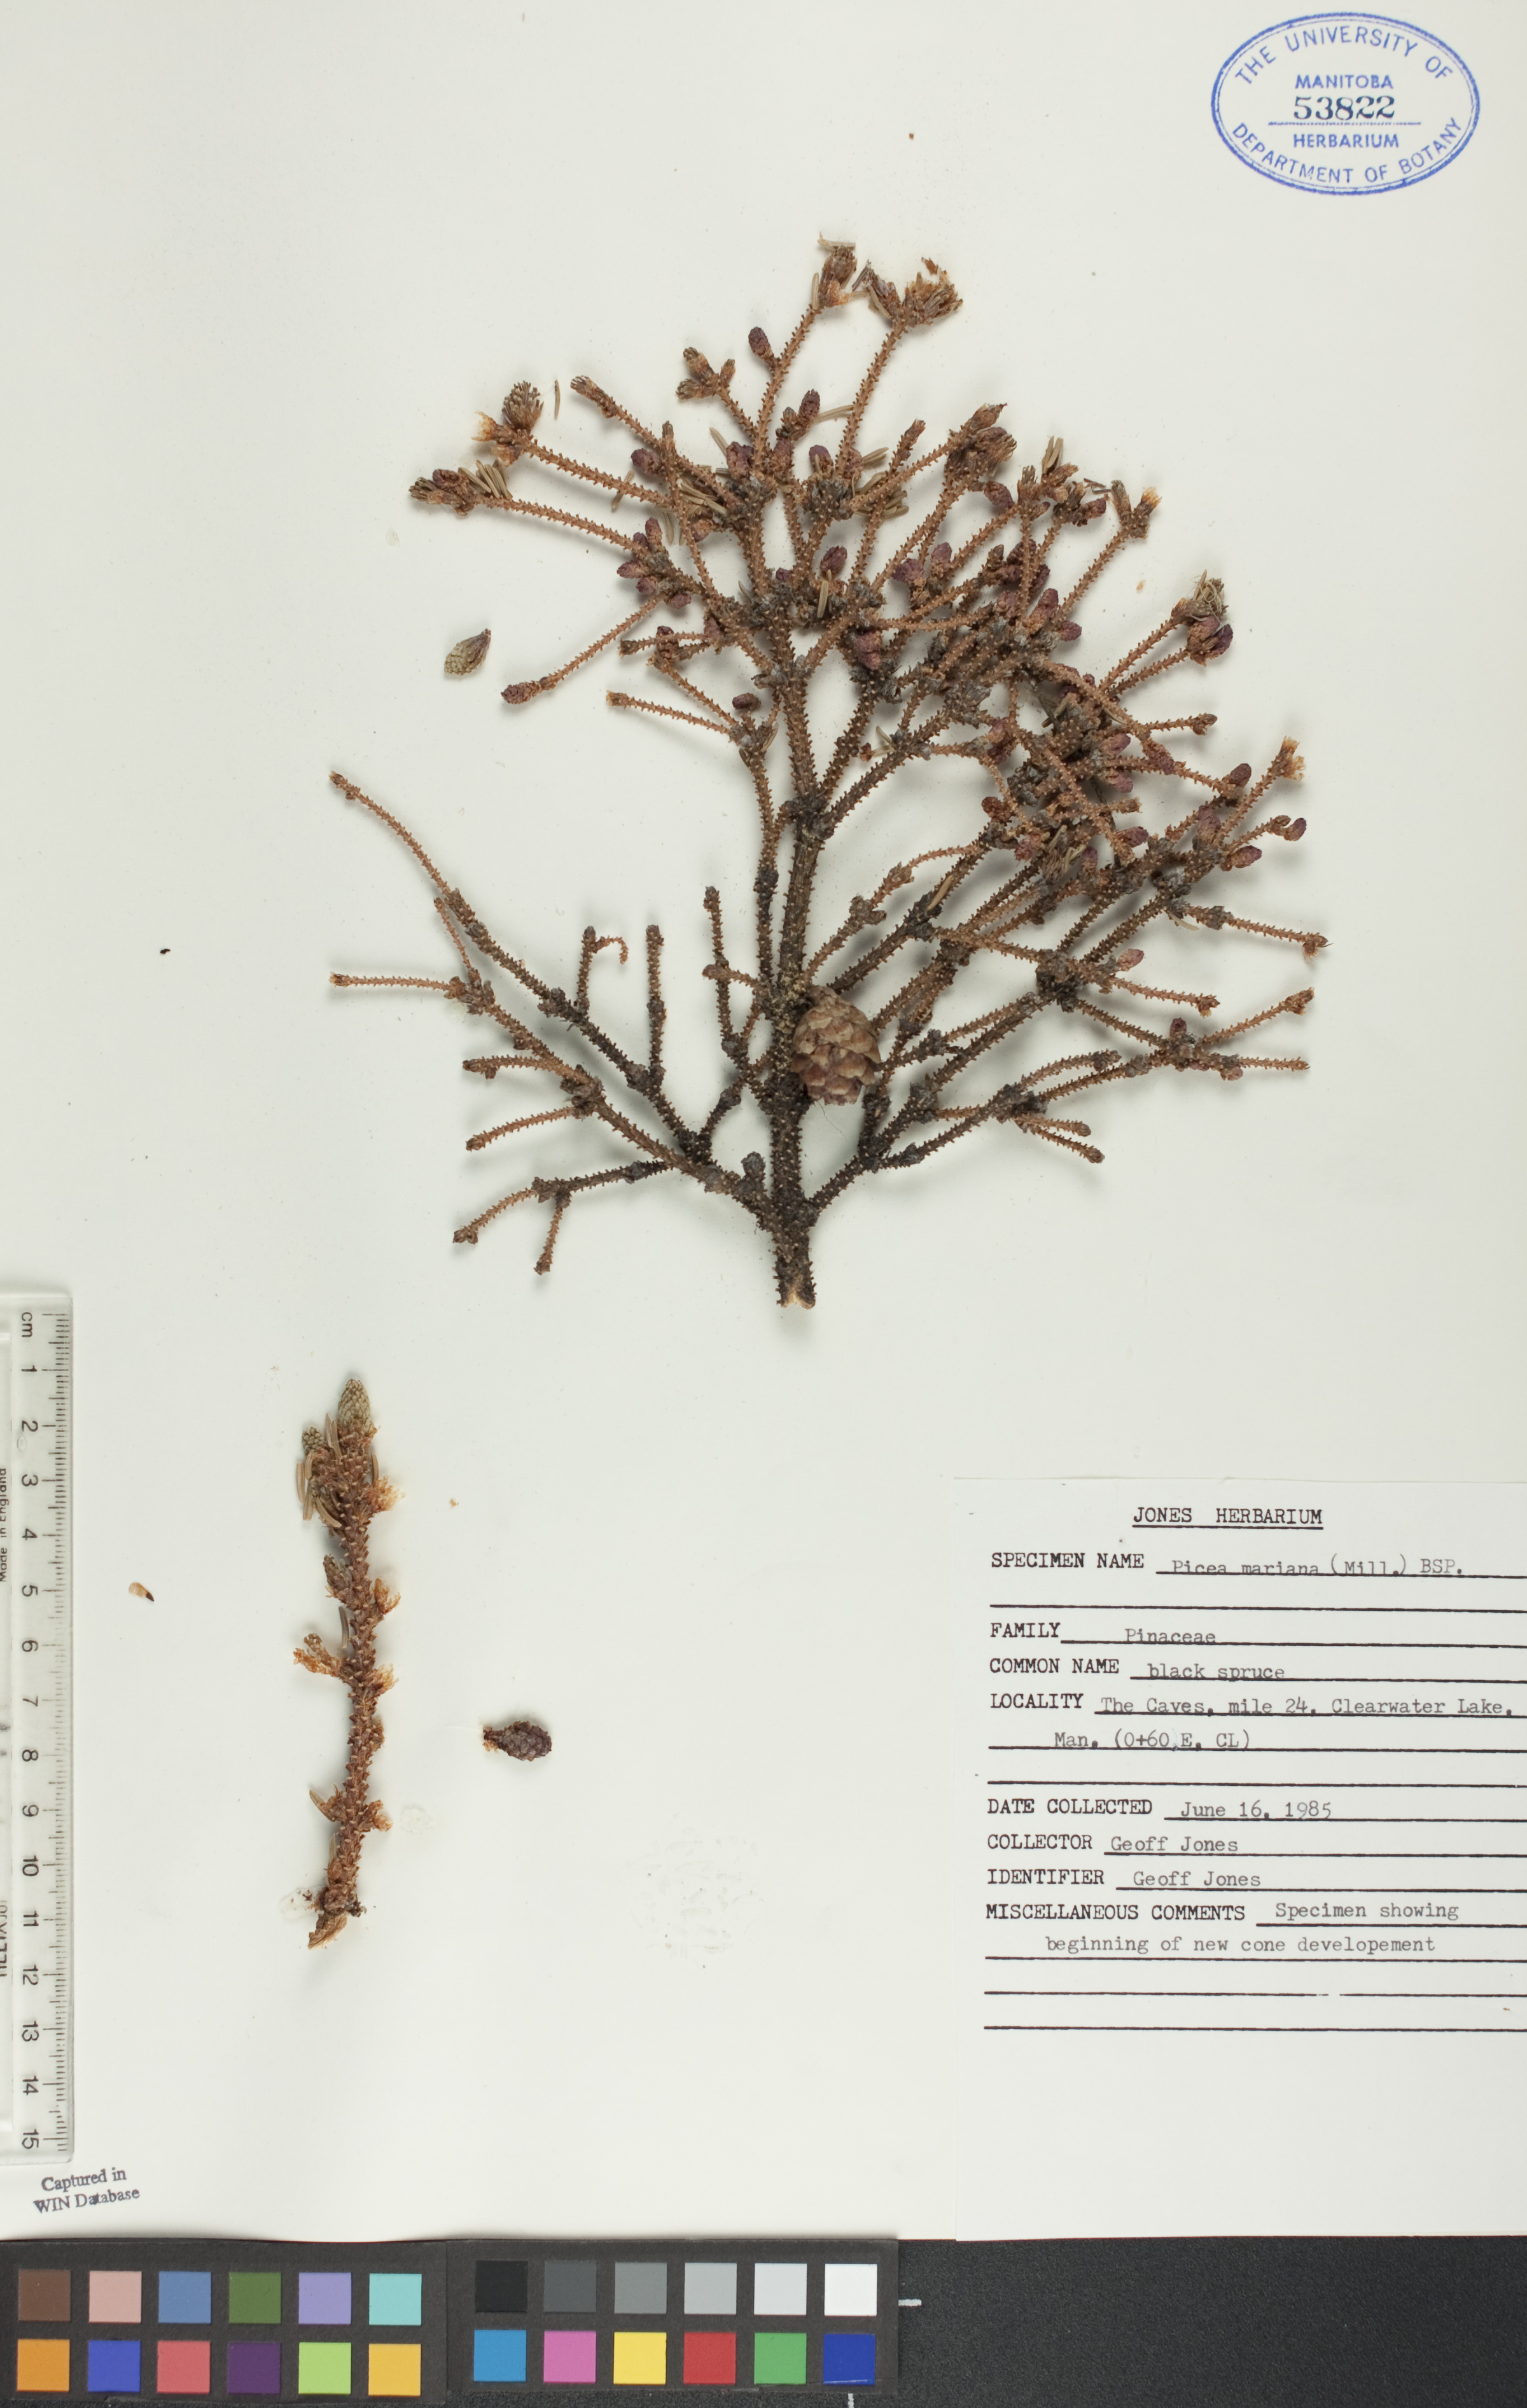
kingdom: Plantae
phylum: Tracheophyta
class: Pinopsida
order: Pinales
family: Pinaceae
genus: Picea
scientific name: Picea mariana
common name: Black spruce
